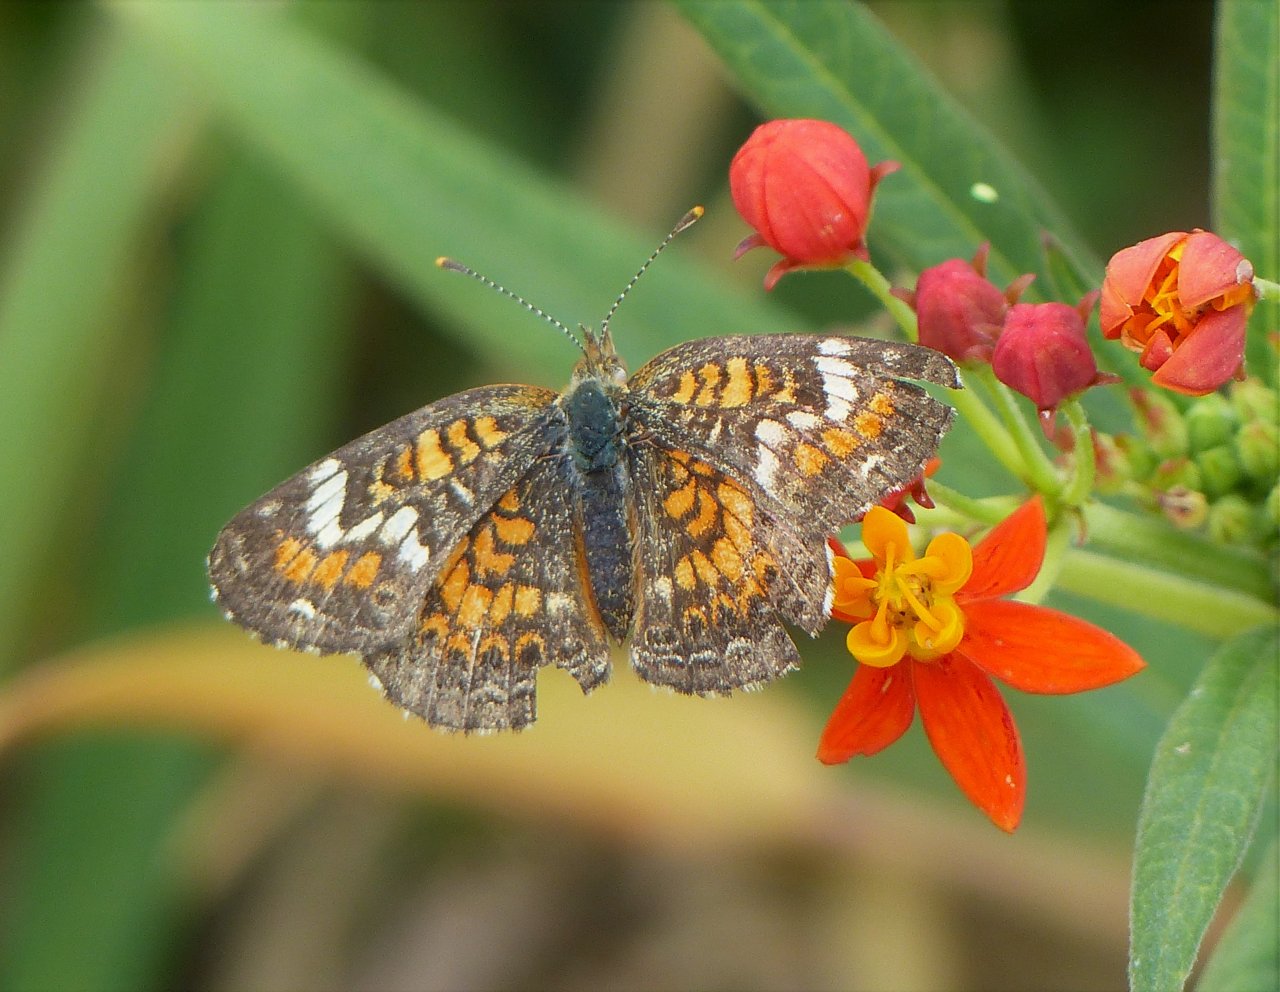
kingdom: Animalia
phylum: Arthropoda
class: Insecta
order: Lepidoptera
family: Nymphalidae
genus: Phyciodes
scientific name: Phyciodes phaon
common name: Phaon Crescent
